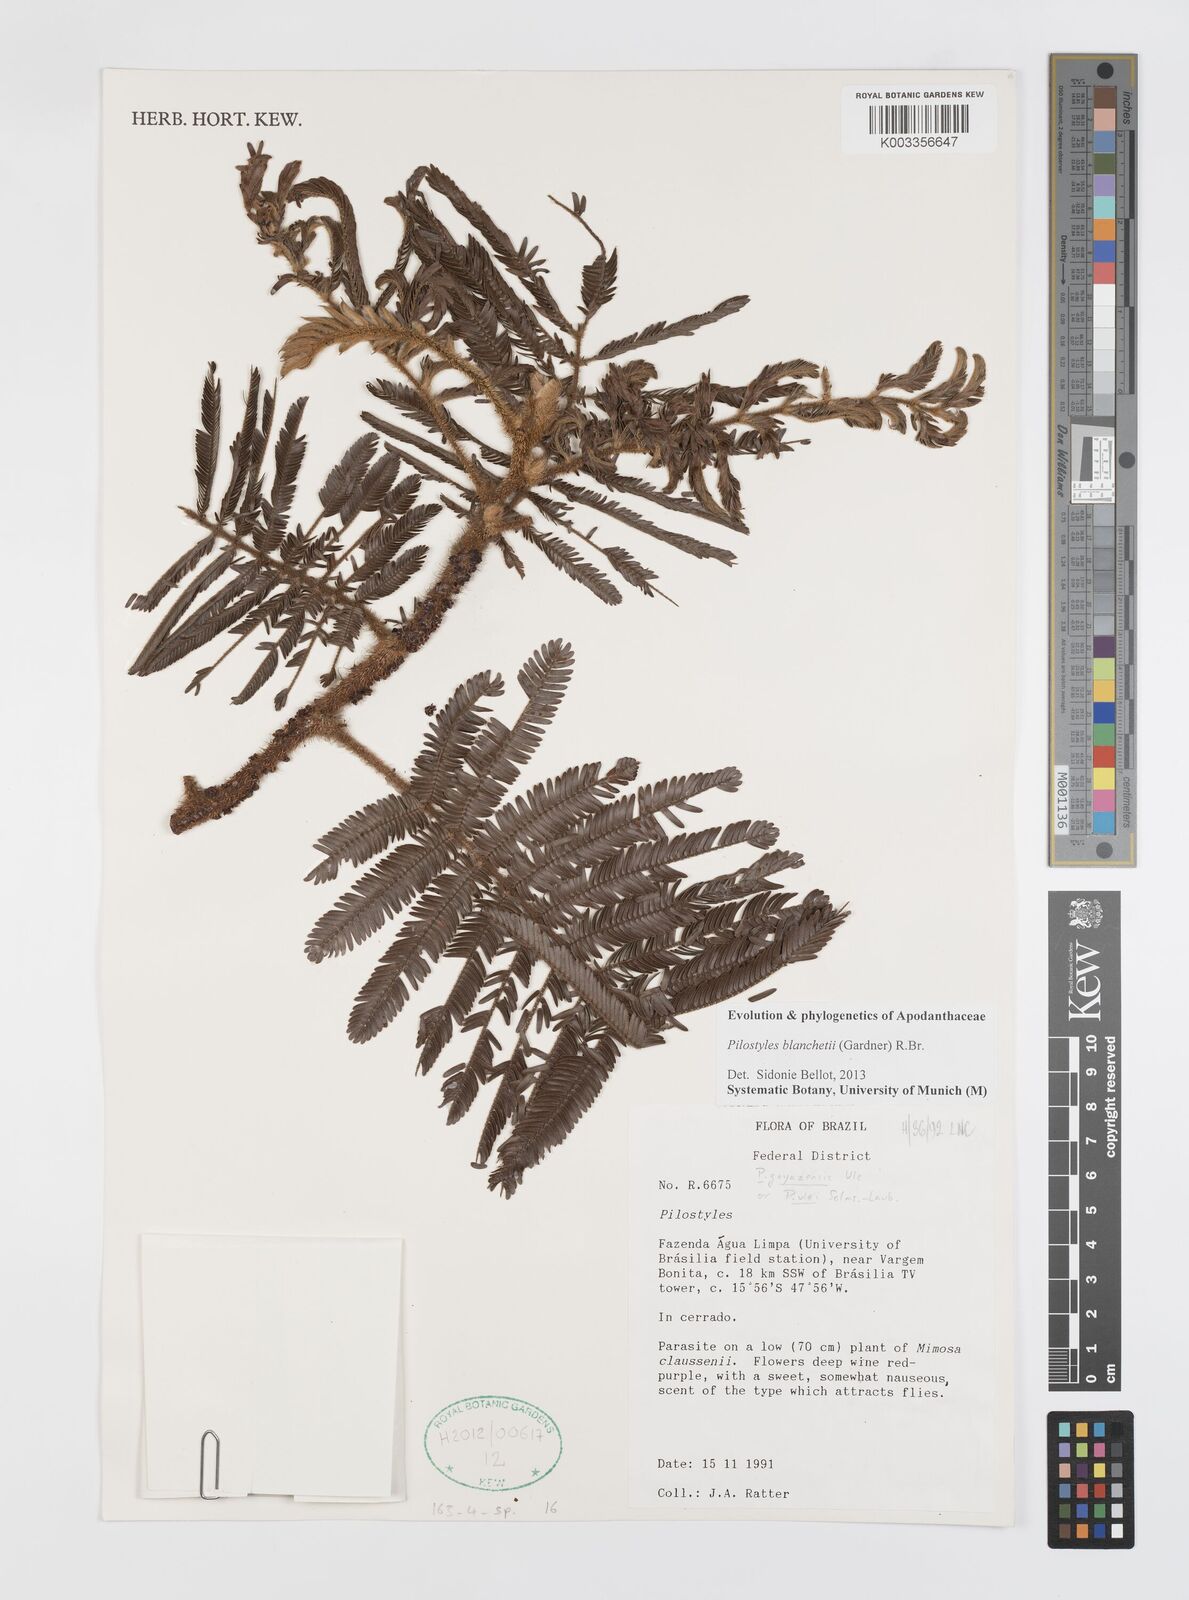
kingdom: Plantae
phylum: Tracheophyta
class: Magnoliopsida
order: Cucurbitales
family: Apodanthaceae
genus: Pilostyles
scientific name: Pilostyles blanchetii
